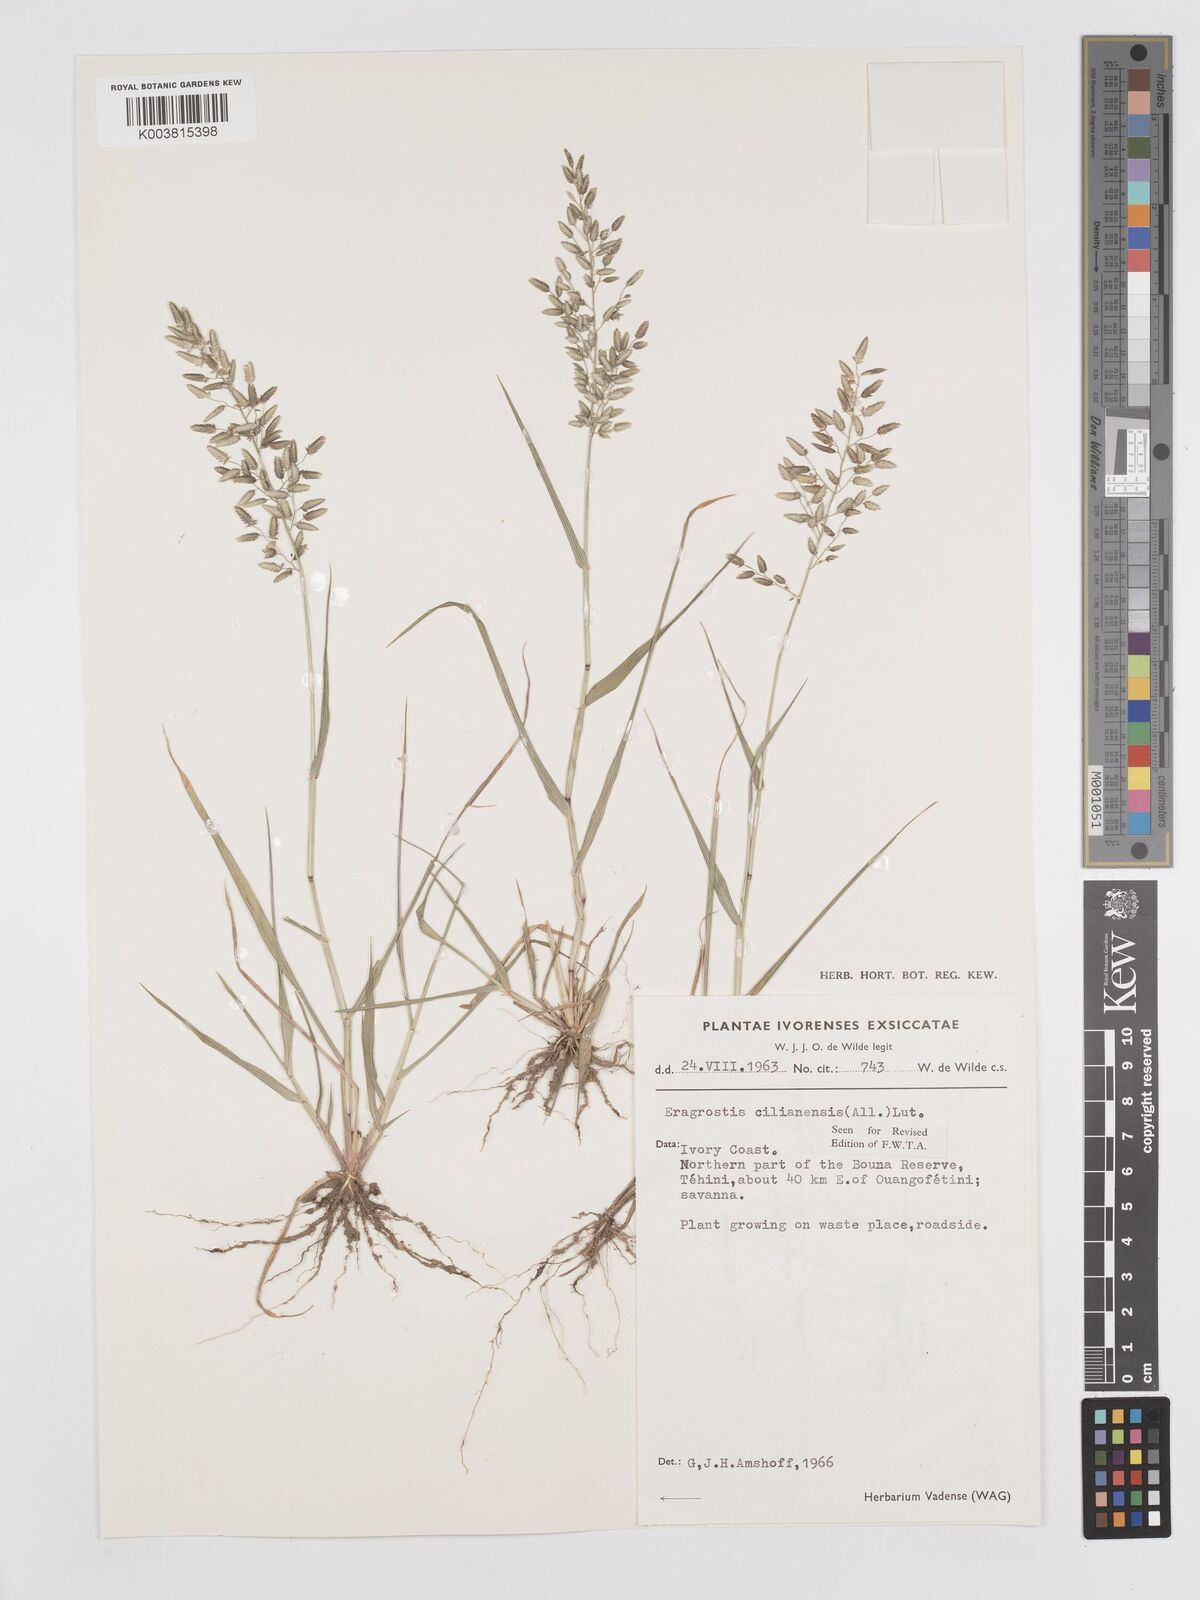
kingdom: Plantae
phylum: Tracheophyta
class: Liliopsida
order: Poales
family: Poaceae
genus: Eragrostis
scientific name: Eragrostis cilianensis
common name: Stinkgrass
